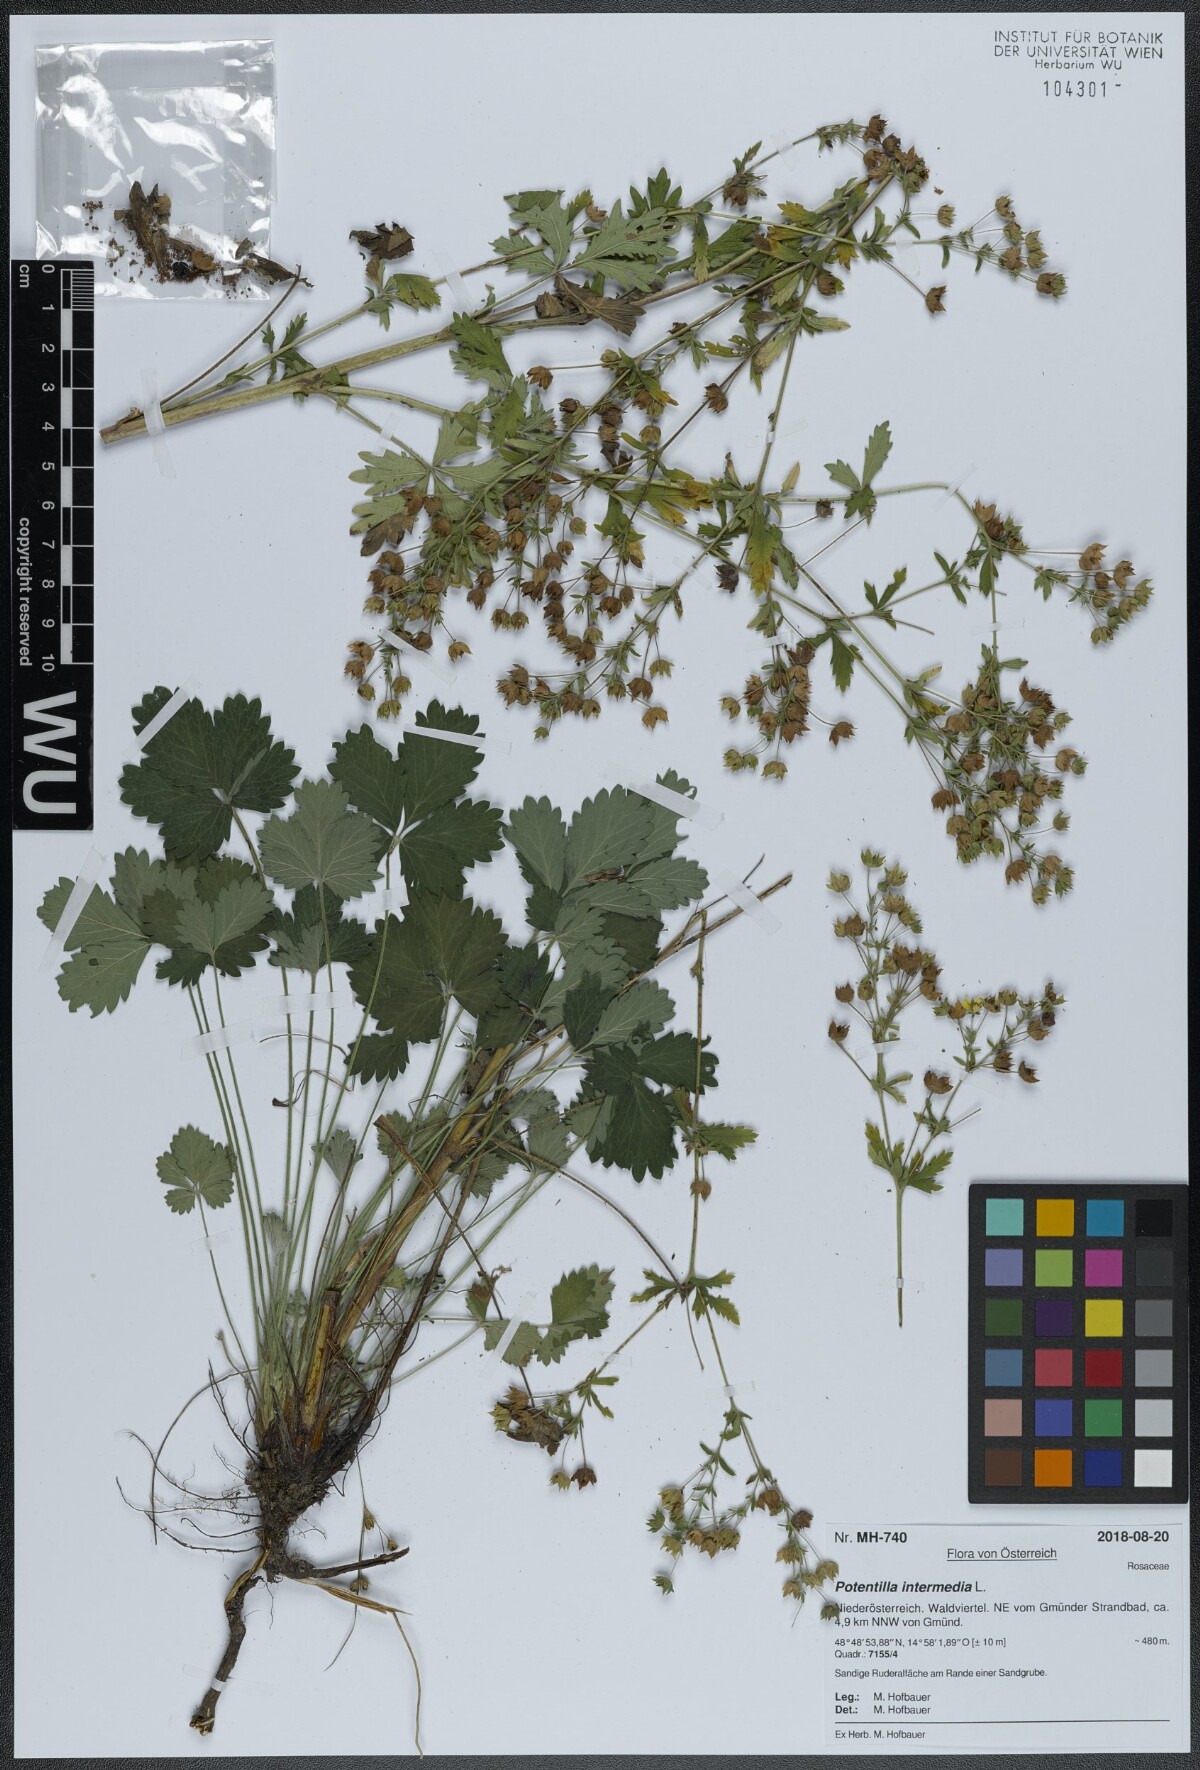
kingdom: Plantae
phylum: Tracheophyta
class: Magnoliopsida
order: Rosales
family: Rosaceae
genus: Potentilla
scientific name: Potentilla intermedia
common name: Downy cinquefoil
